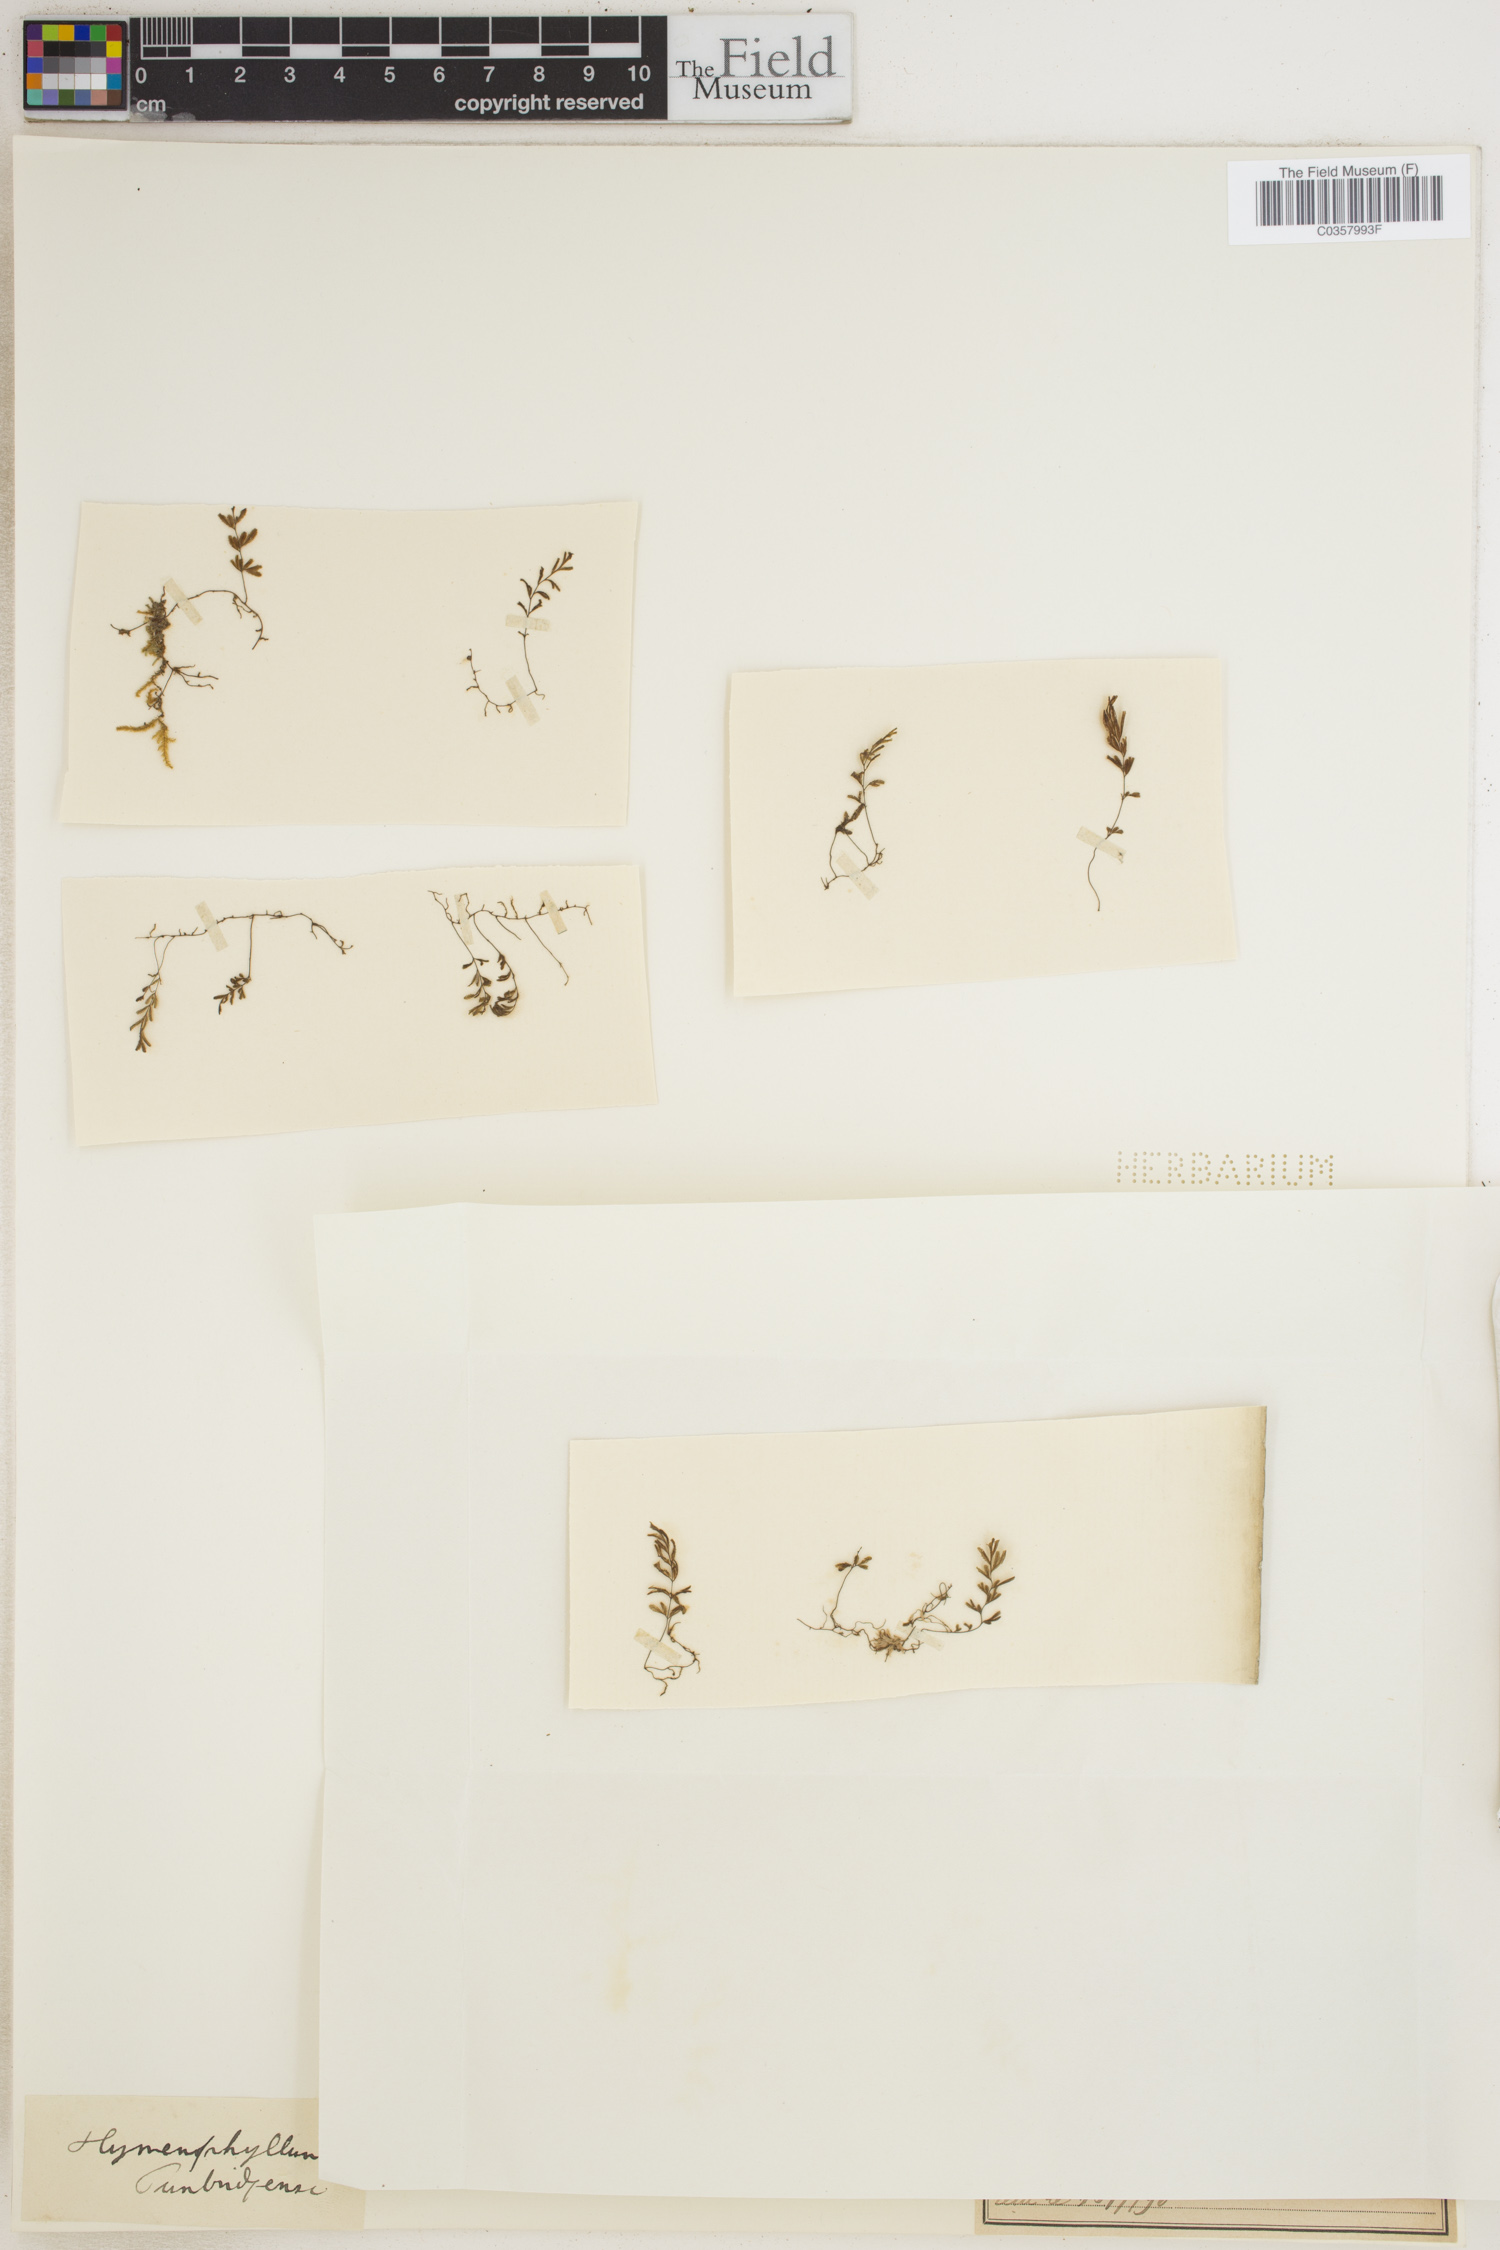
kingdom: Plantae
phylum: Tracheophyta
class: Polypodiopsida
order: Hymenophyllales
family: Hymenophyllaceae
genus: Hymenophyllum
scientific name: Hymenophyllum tunbrigense
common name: Tunbridge filmy fern
